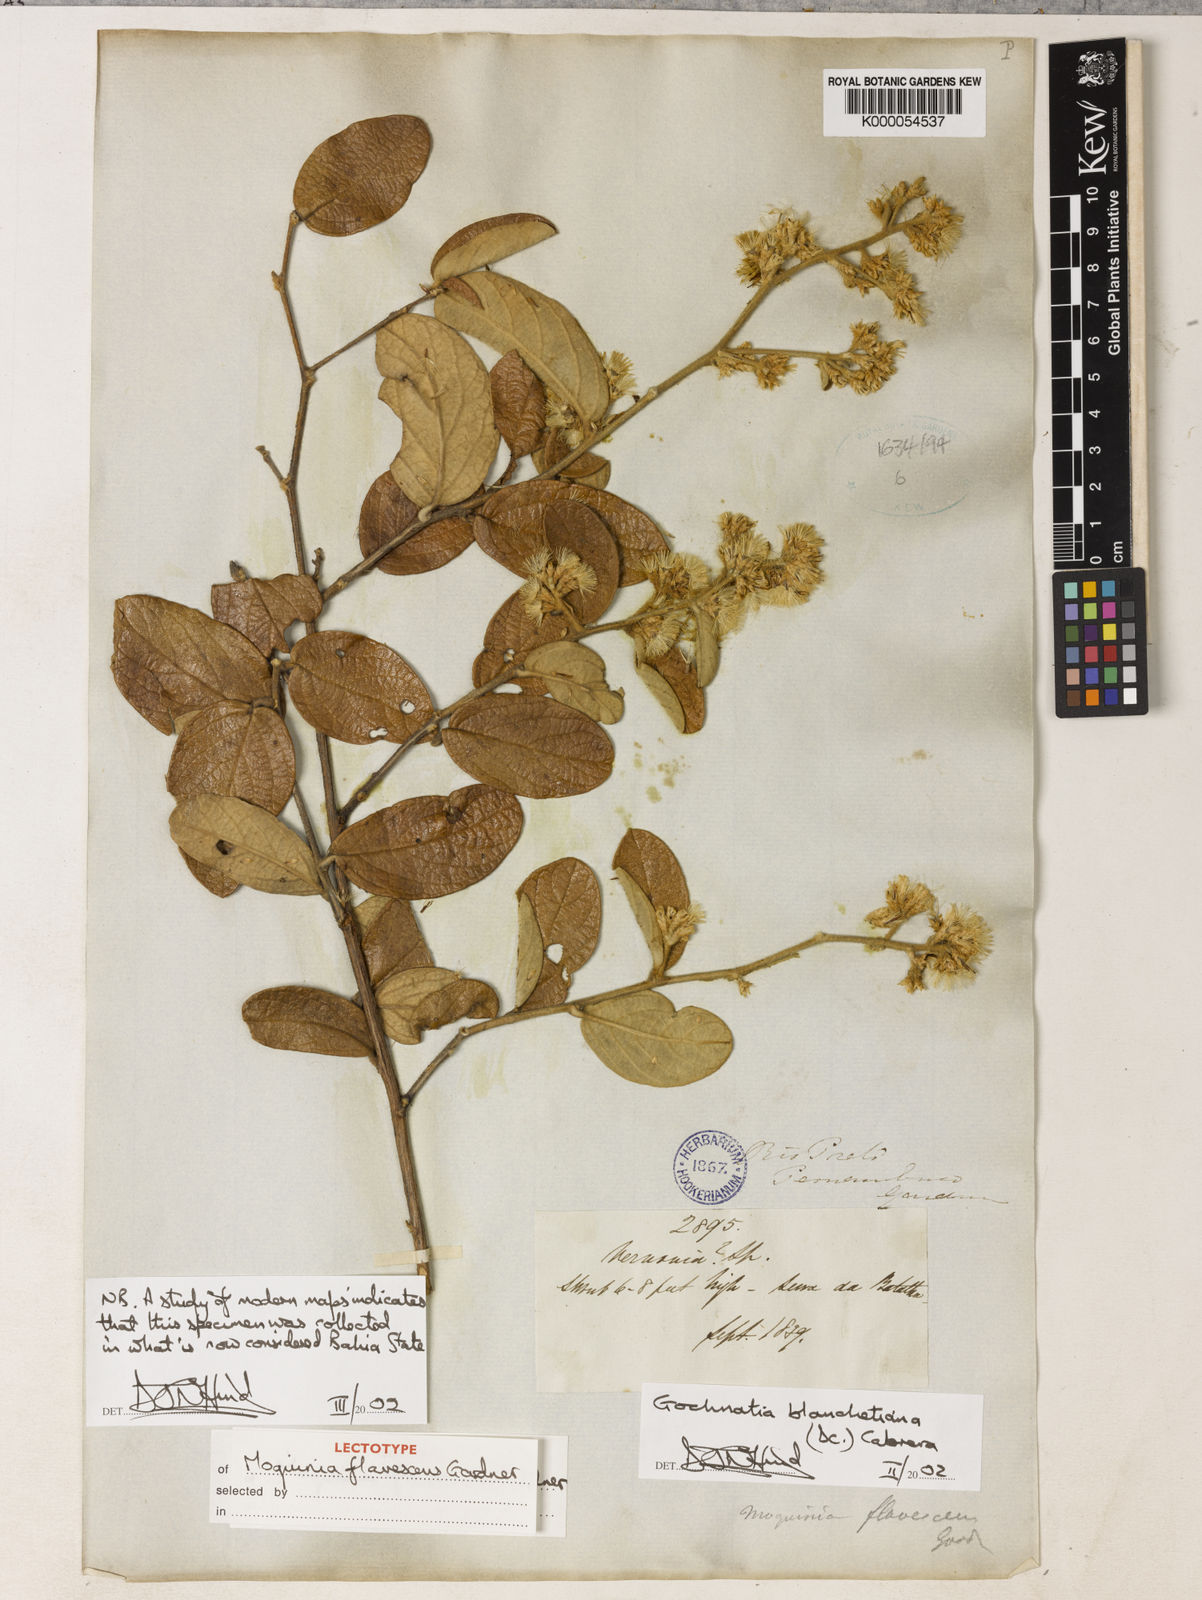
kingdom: Plantae
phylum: Tracheophyta
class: Magnoliopsida
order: Asterales
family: Asteraceae
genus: Moquiniastrum
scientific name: Moquiniastrum blanchetianum
